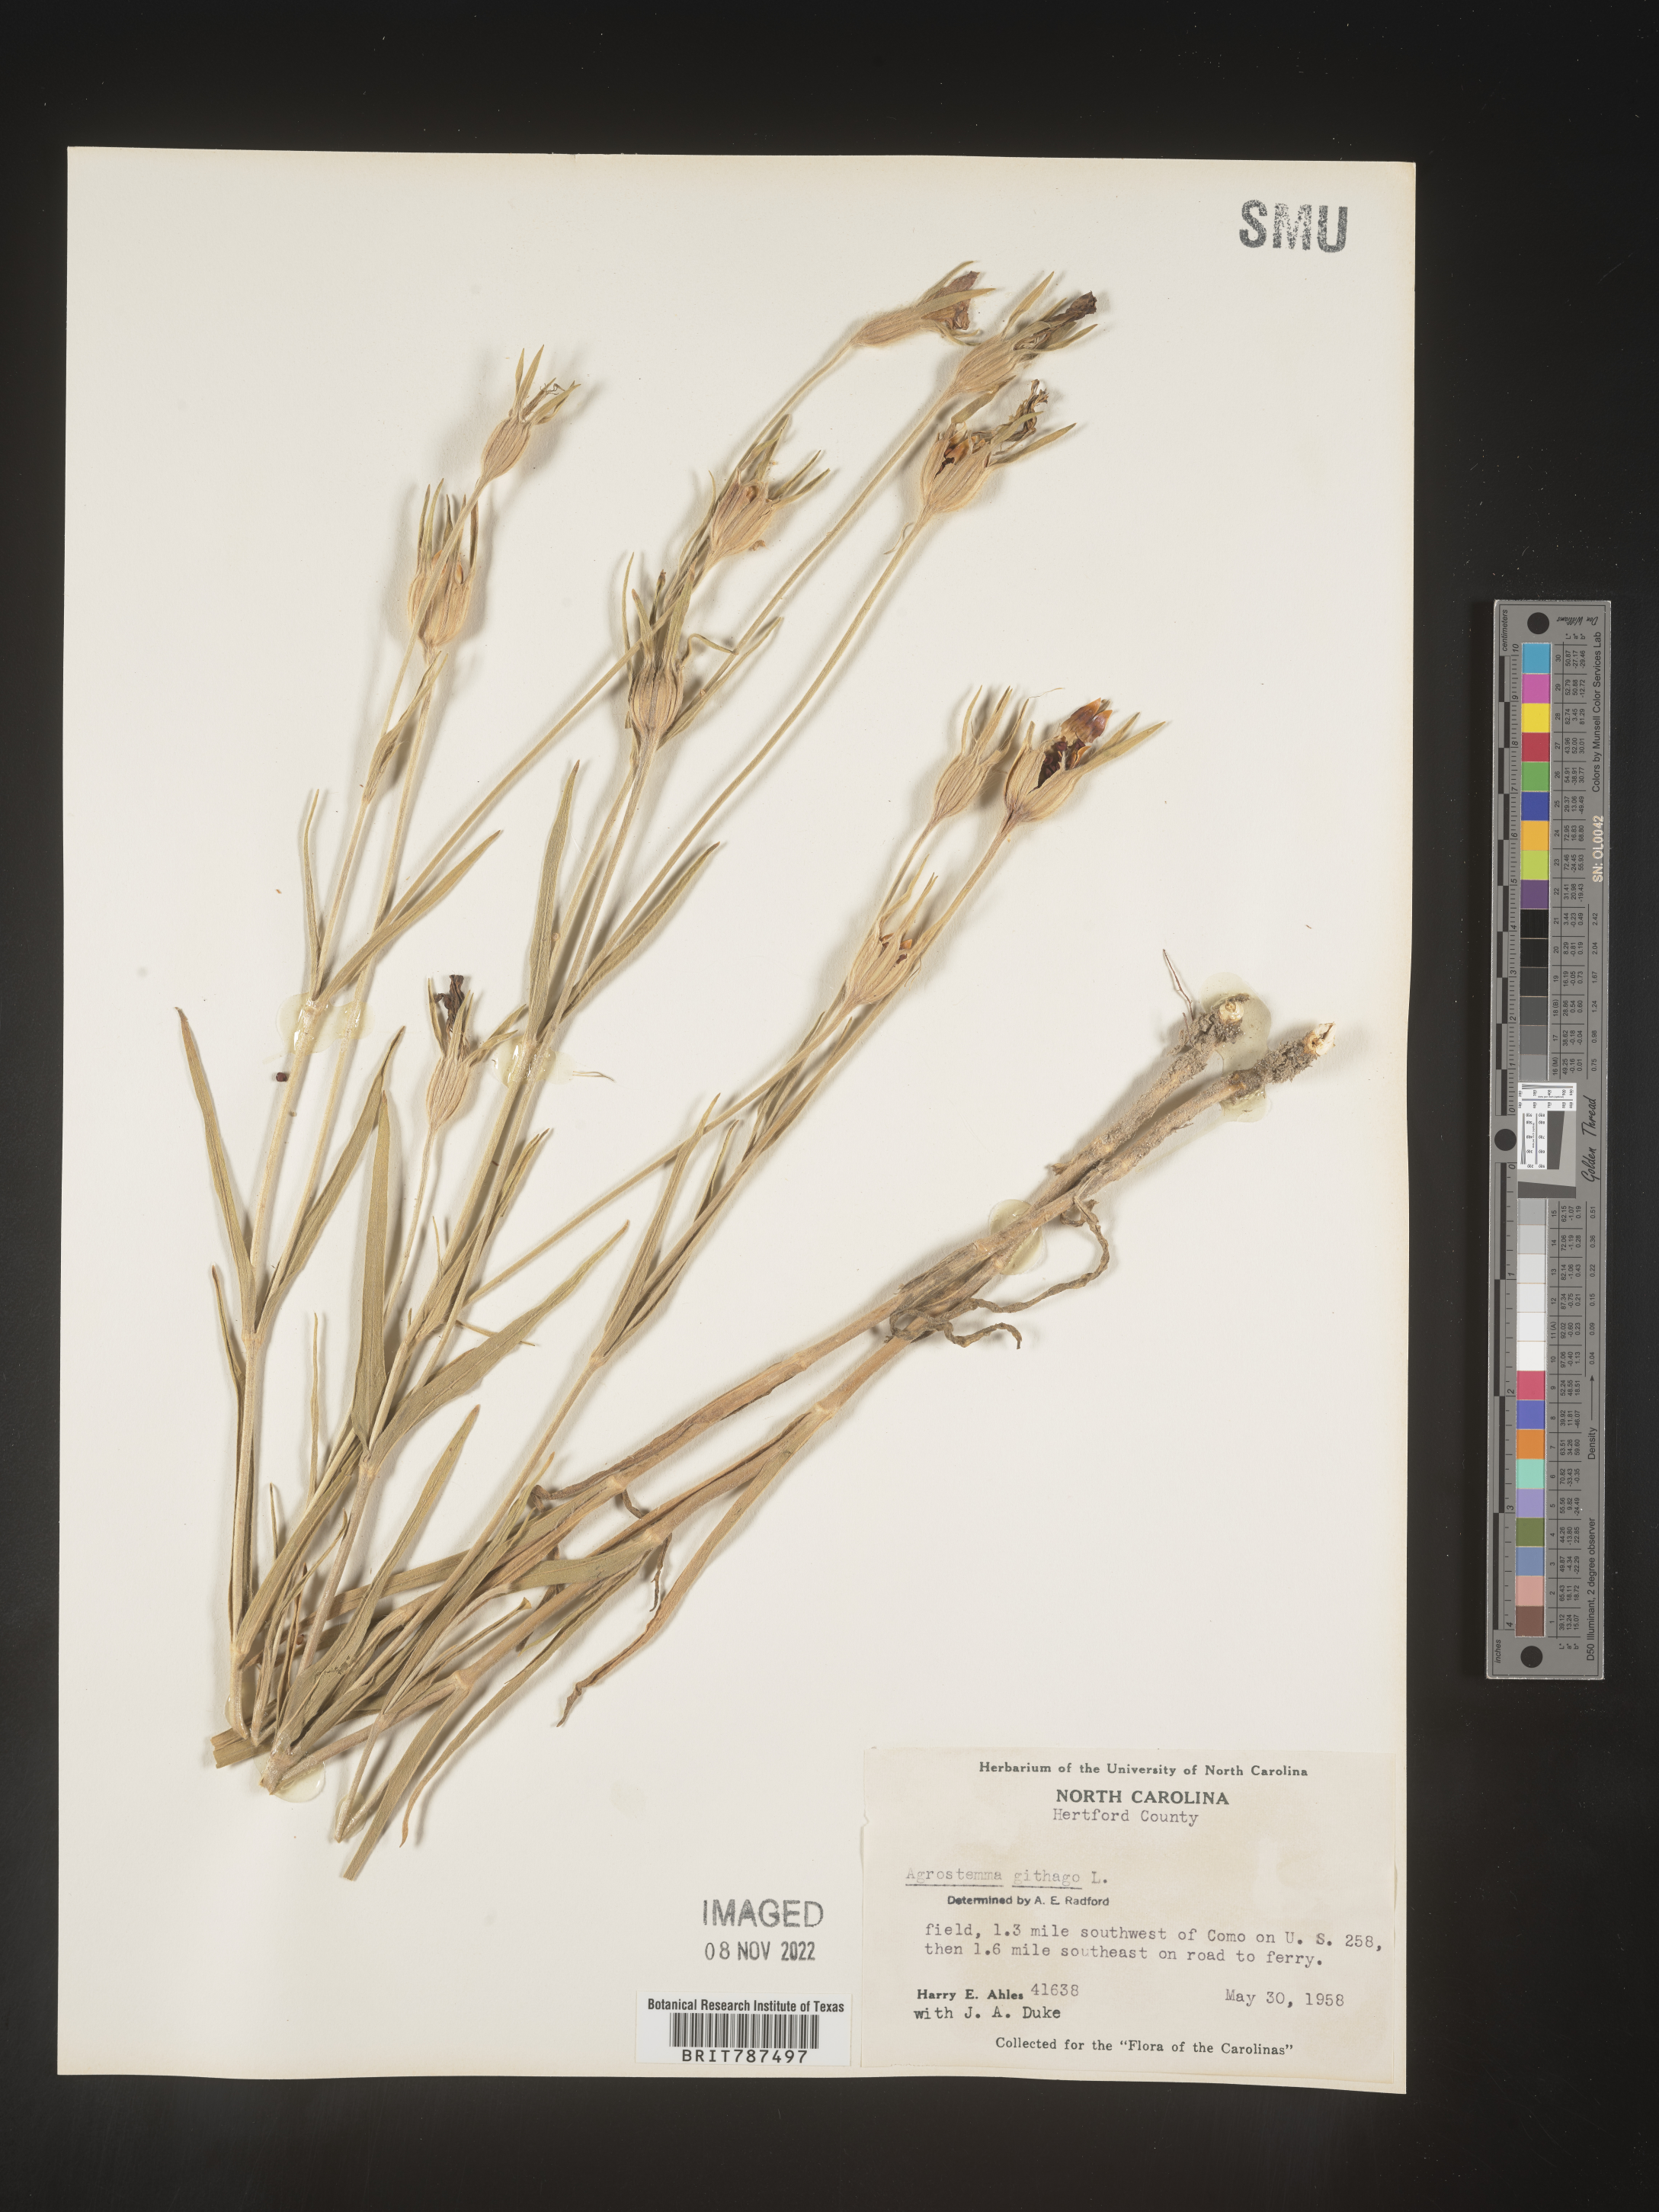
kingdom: Plantae
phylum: Tracheophyta
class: Magnoliopsida
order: Caryophyllales
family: Caryophyllaceae
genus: Agrostemma
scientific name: Agrostemma githago
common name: Common corncockle
